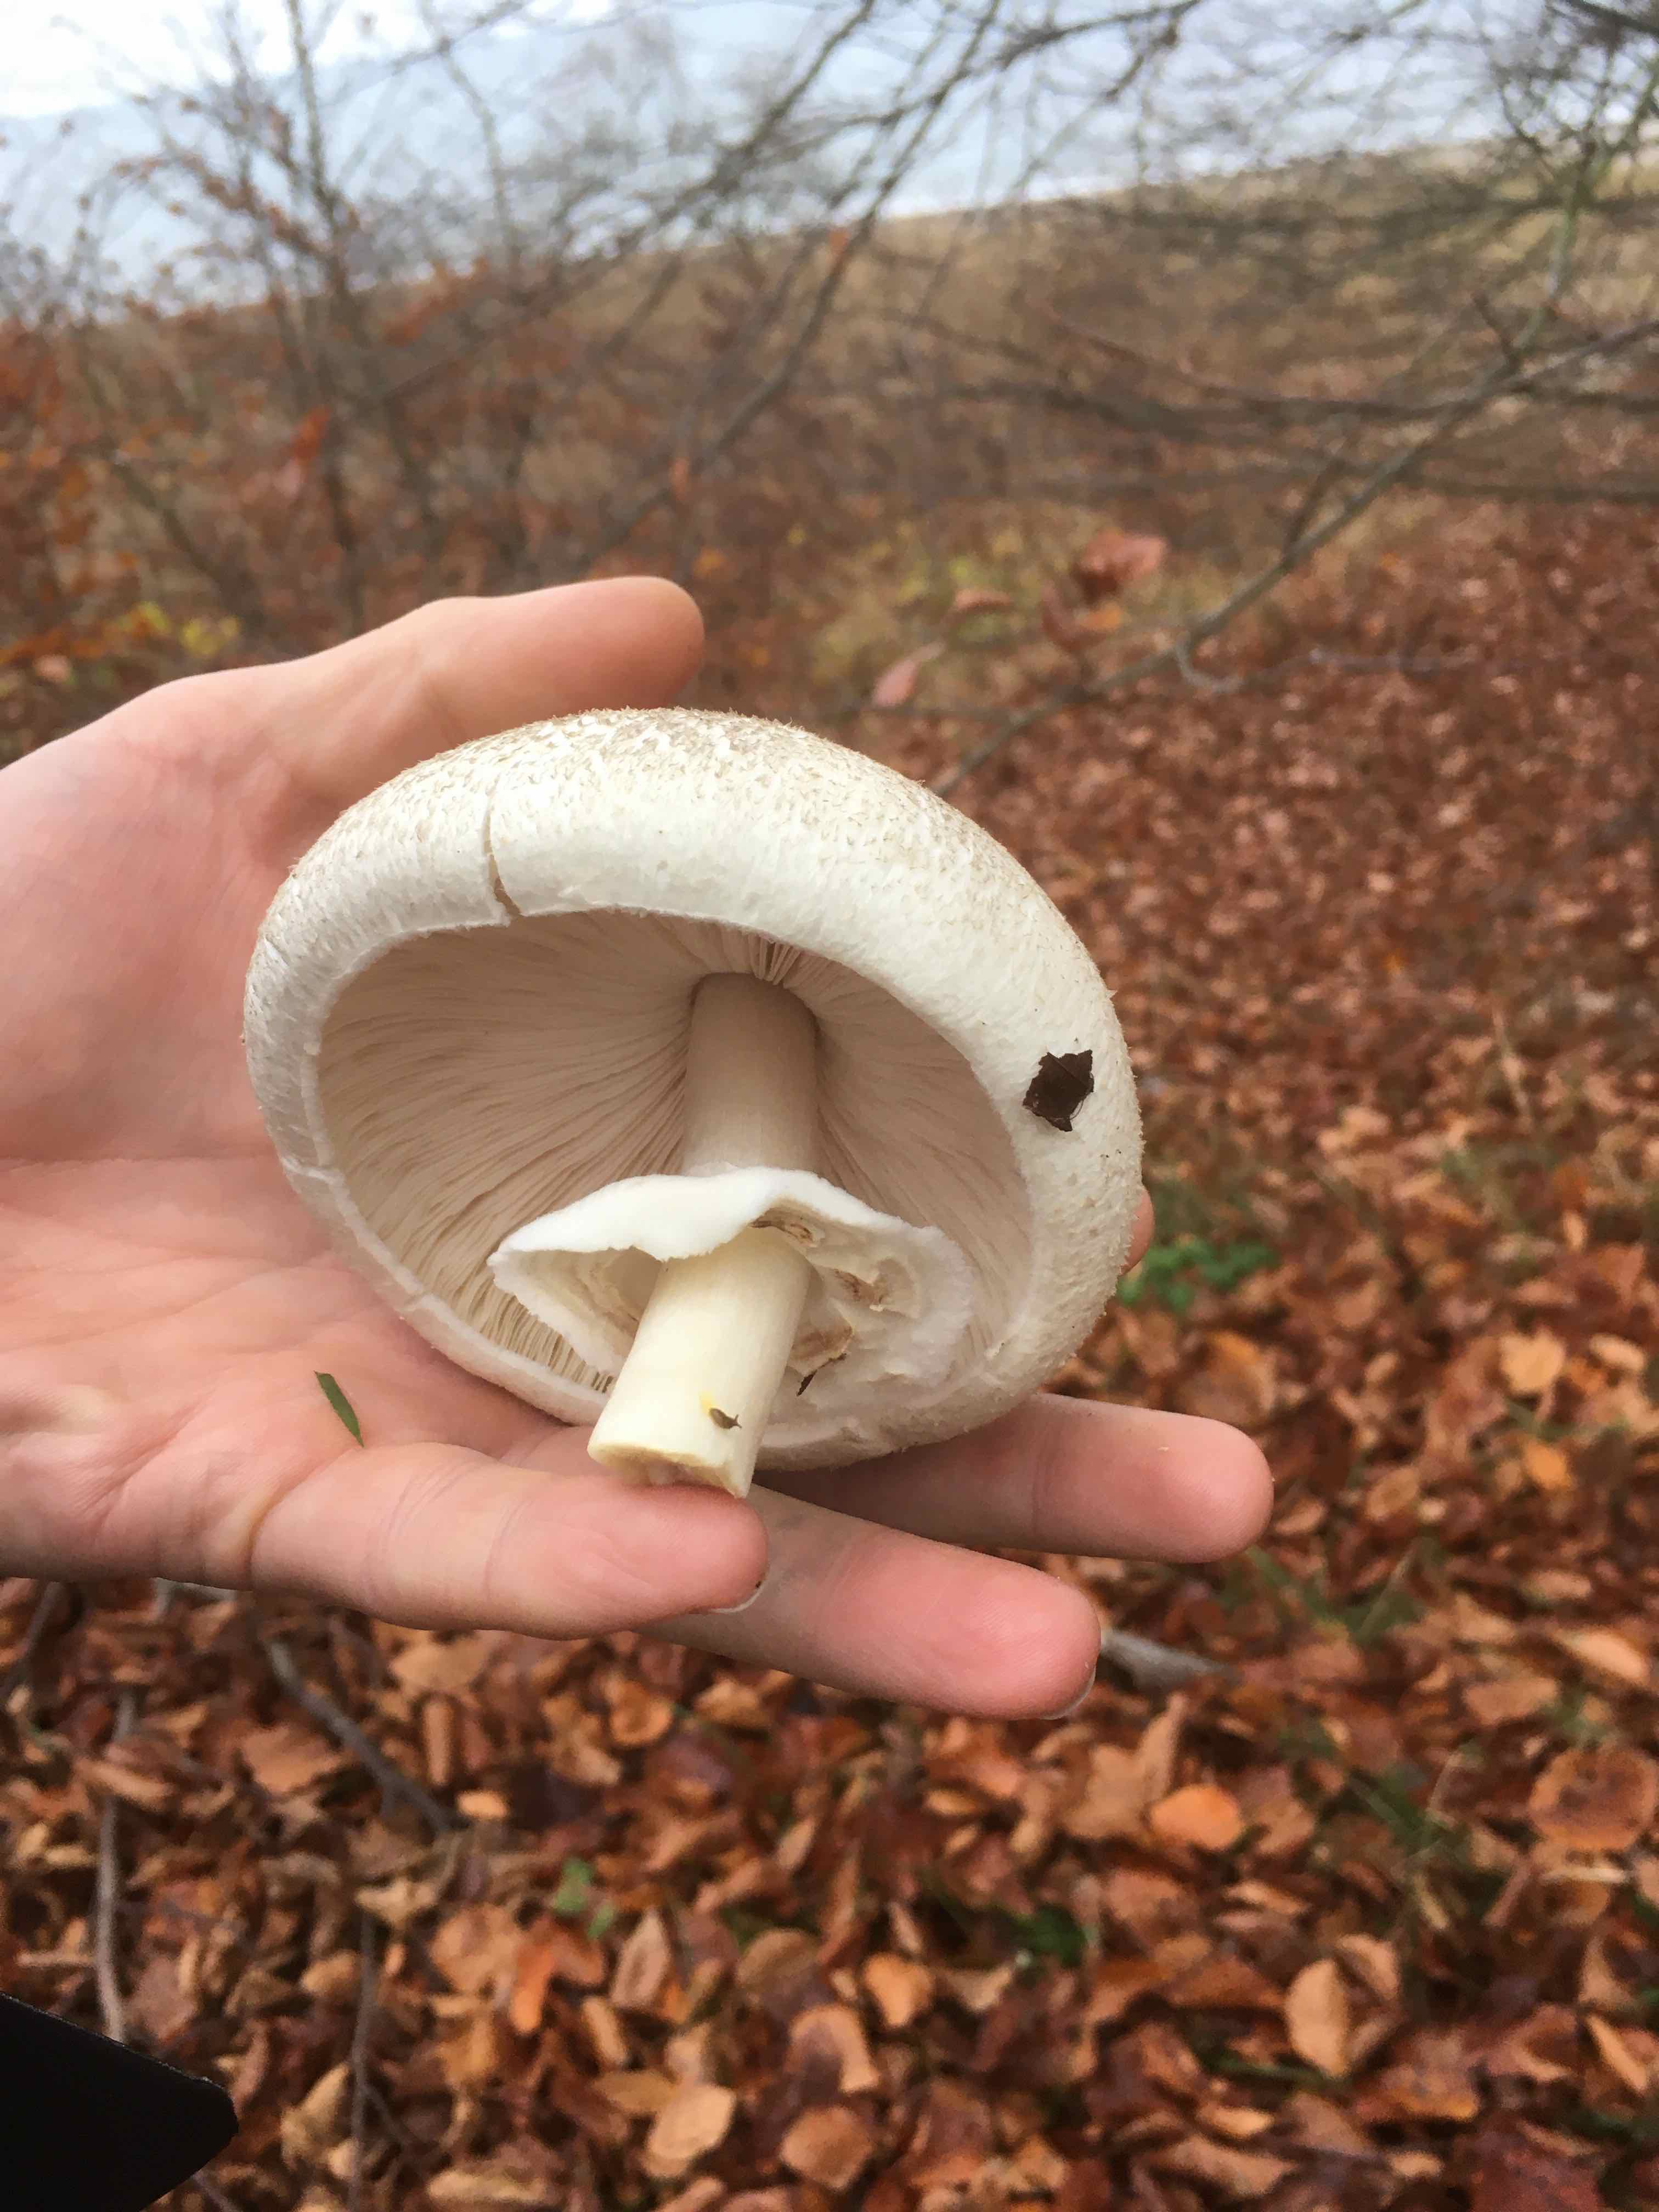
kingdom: Fungi
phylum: Basidiomycota
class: Agaricomycetes
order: Agaricales
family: Agaricaceae
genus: Agaricus
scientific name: Agaricus xanthodermus
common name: karbol-champignon
